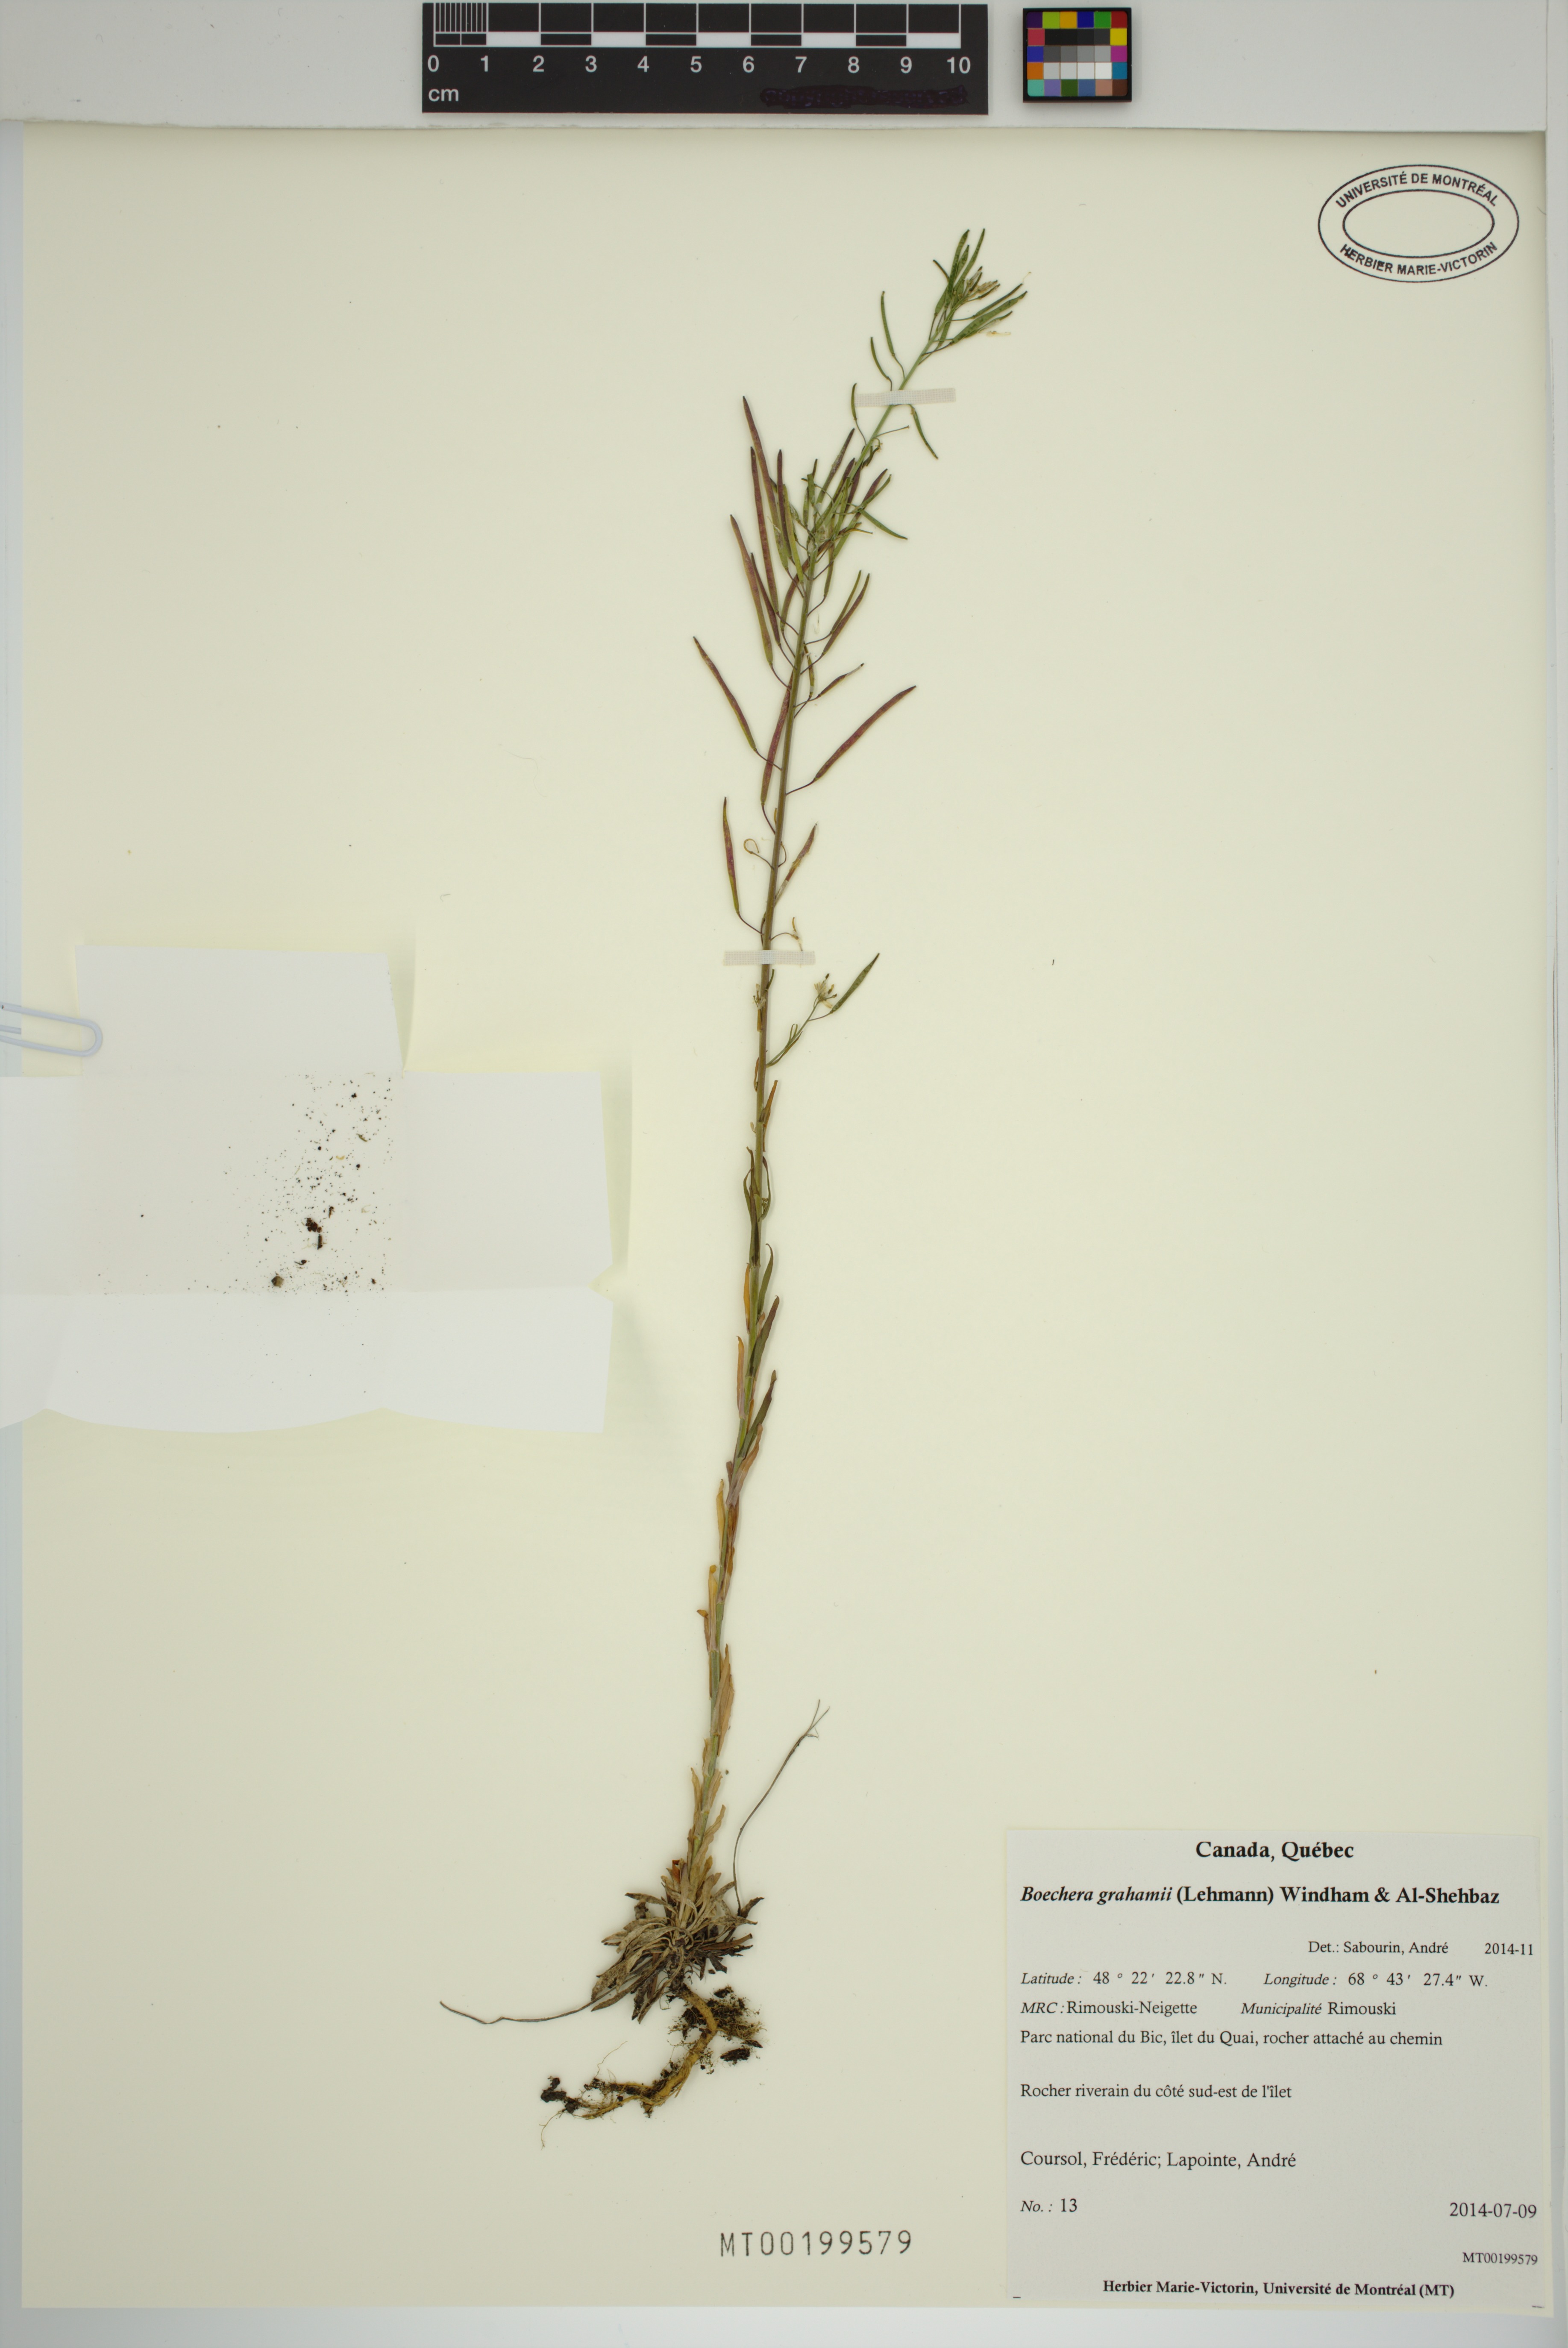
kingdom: Plantae
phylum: Tracheophyta
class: Magnoliopsida
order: Brassicales
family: Brassicaceae
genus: Boechera
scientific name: Boechera
